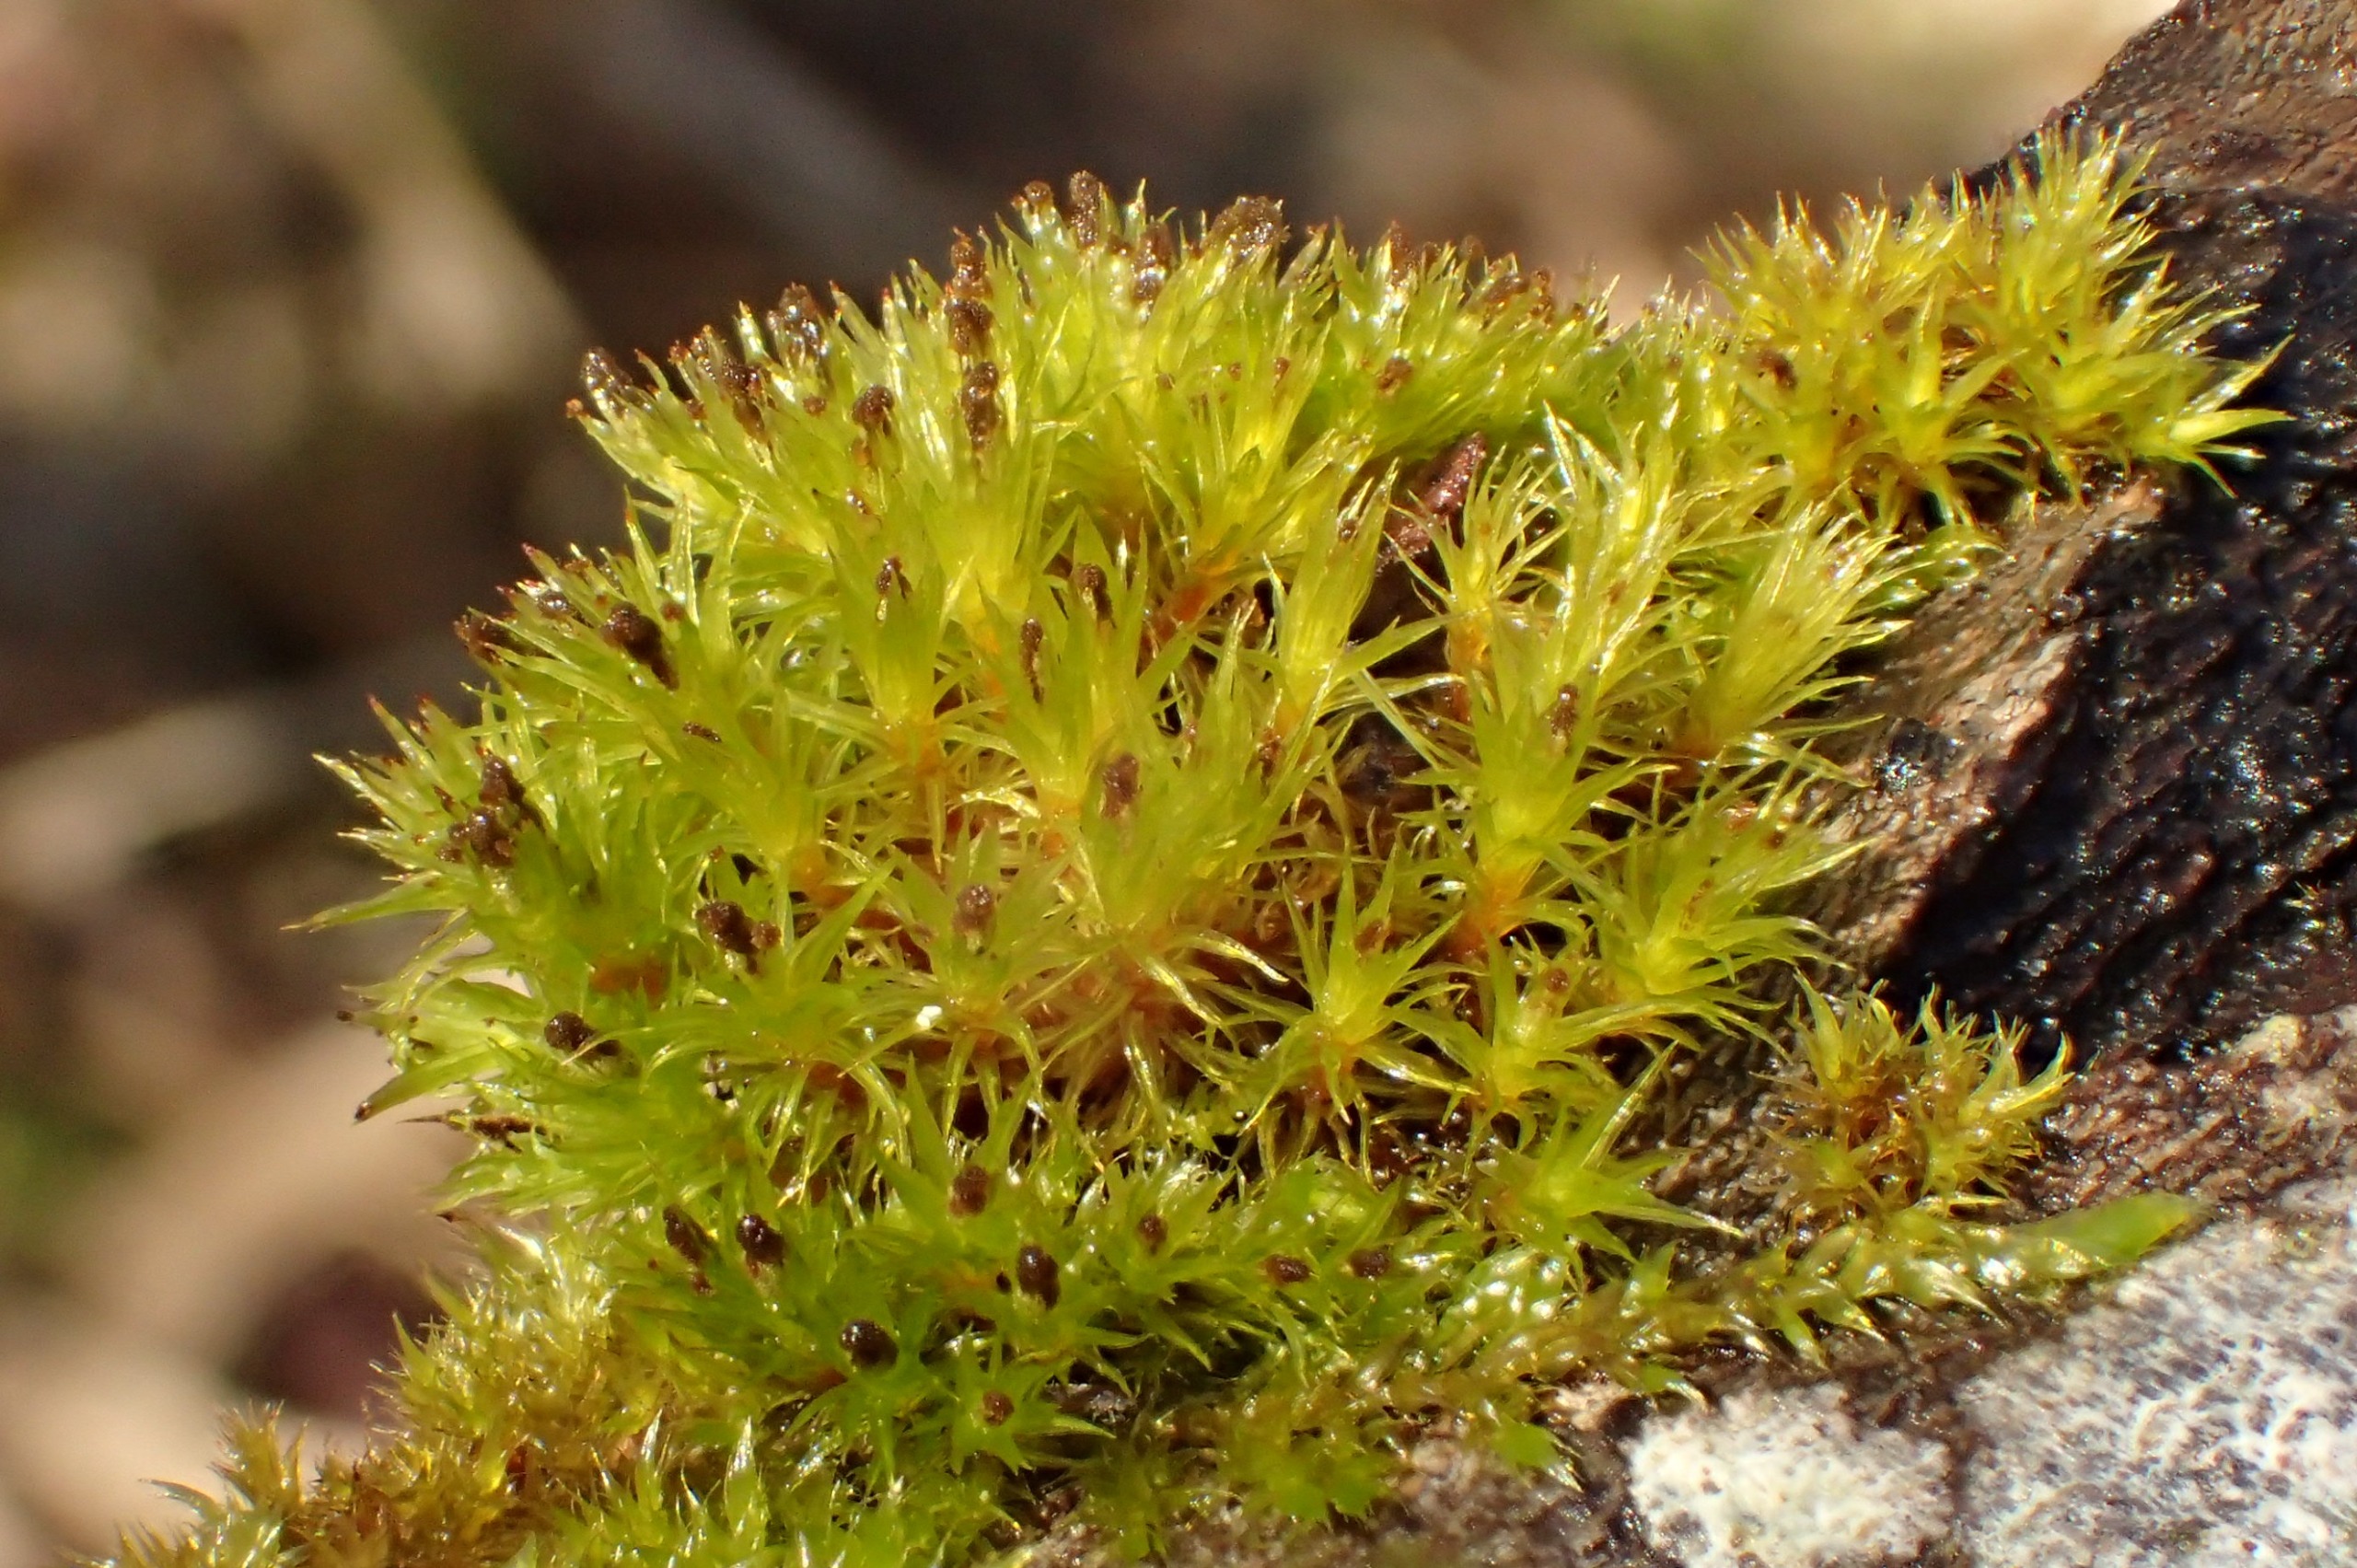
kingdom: Plantae
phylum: Bryophyta
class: Bryopsida
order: Orthotrichales
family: Orthotrichaceae
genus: Plenogemma
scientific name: Plenogemma phyllantha
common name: Stor låddenhætte
